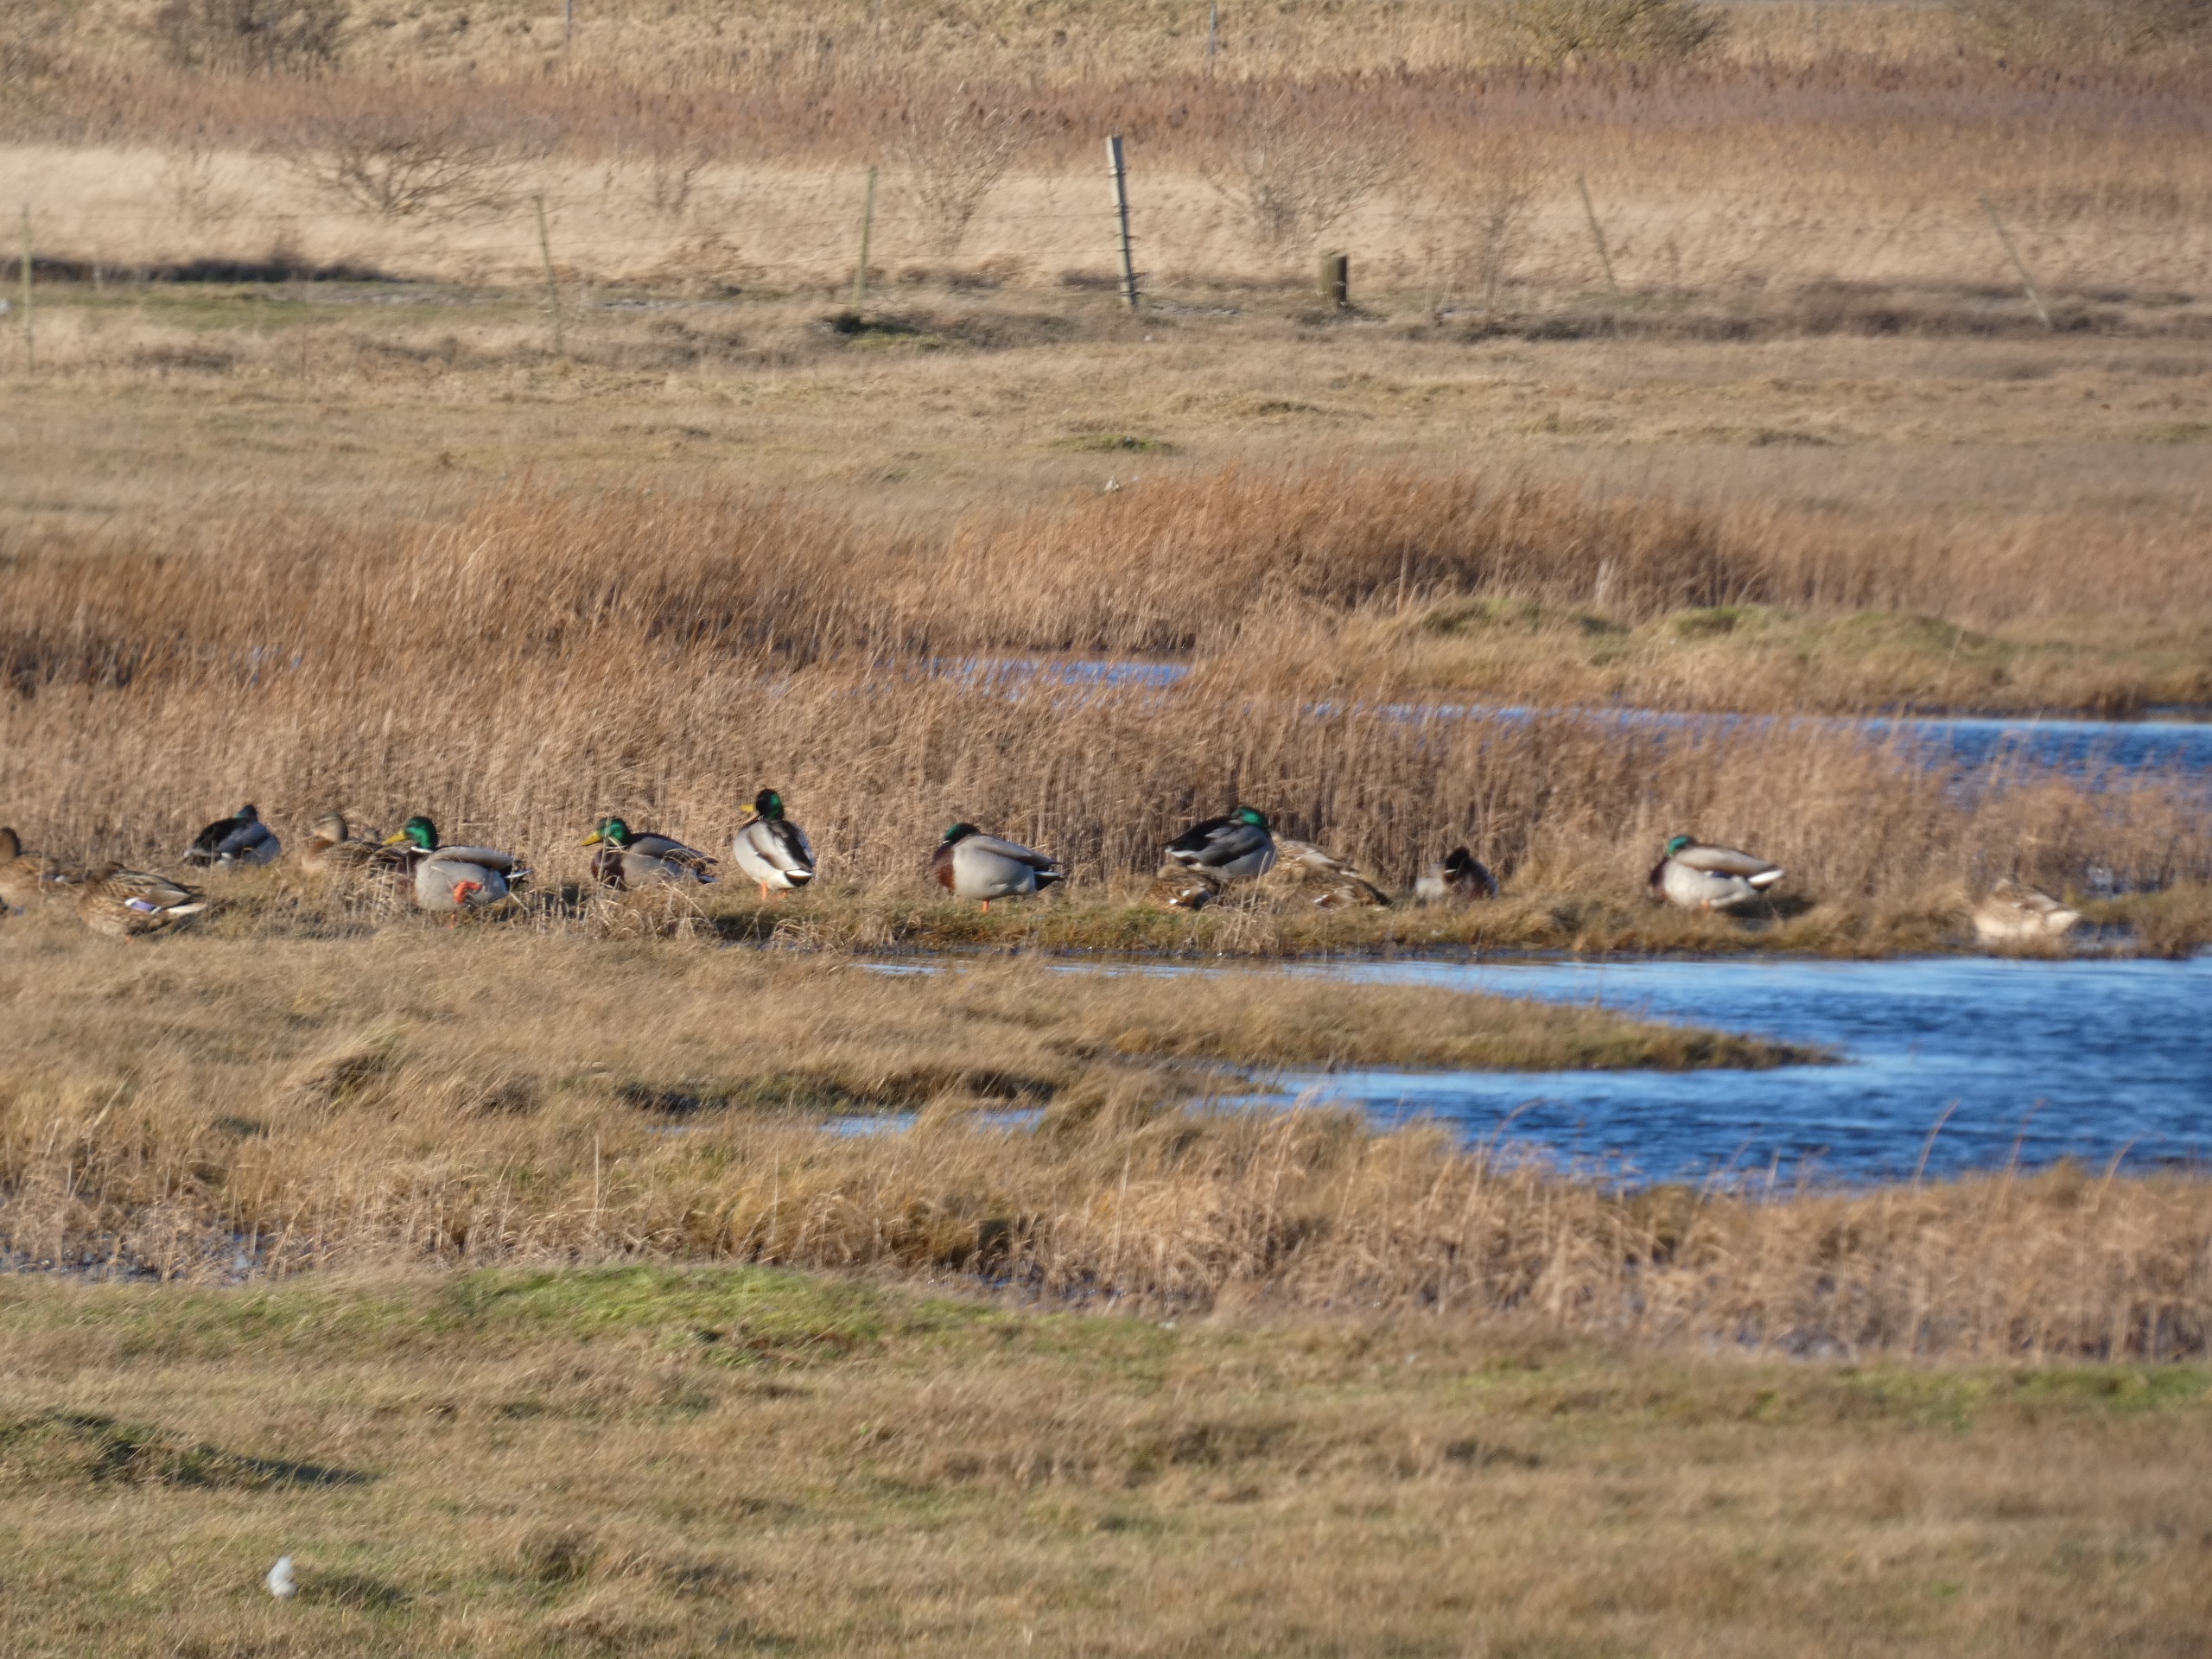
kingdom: Animalia
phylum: Chordata
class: Aves
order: Anseriformes
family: Anatidae
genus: Anas
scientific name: Anas platyrhynchos
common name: Gråand
